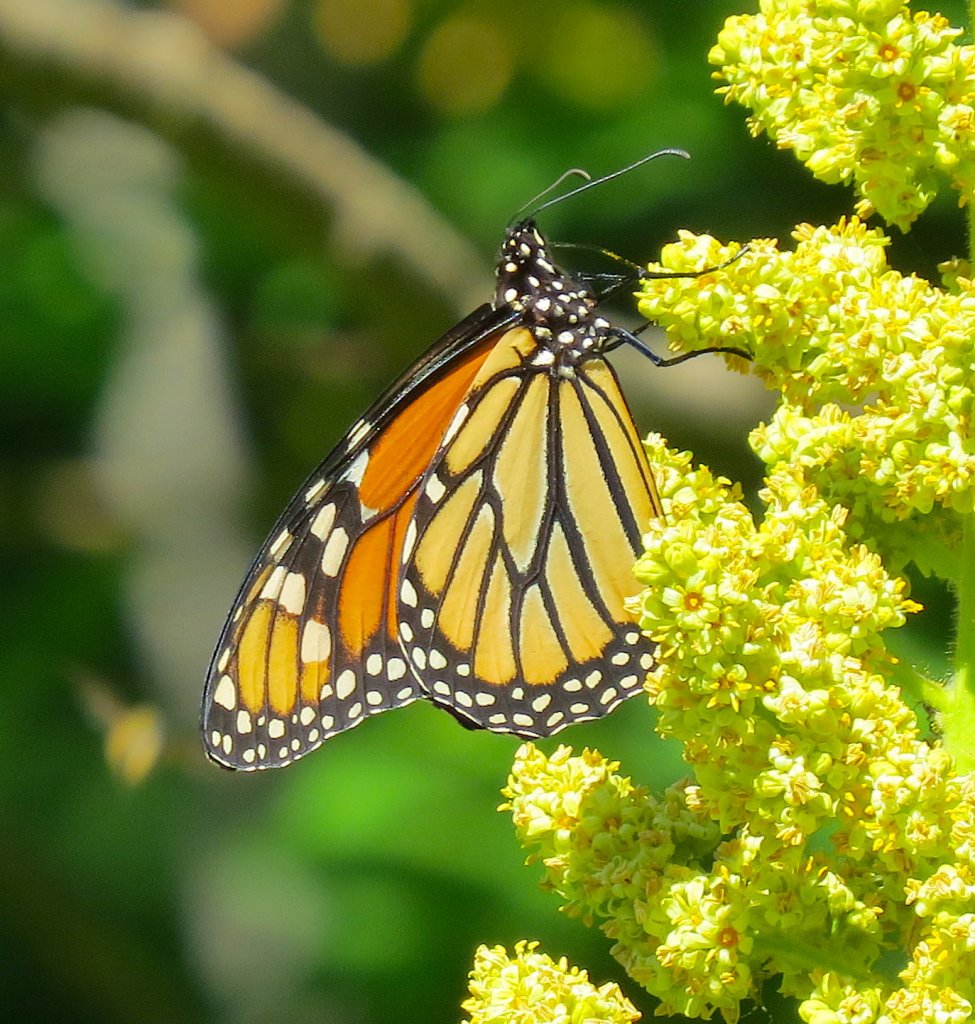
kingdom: Animalia
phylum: Arthropoda
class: Insecta
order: Lepidoptera
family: Nymphalidae
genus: Danaus
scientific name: Danaus plexippus
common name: Monarch
